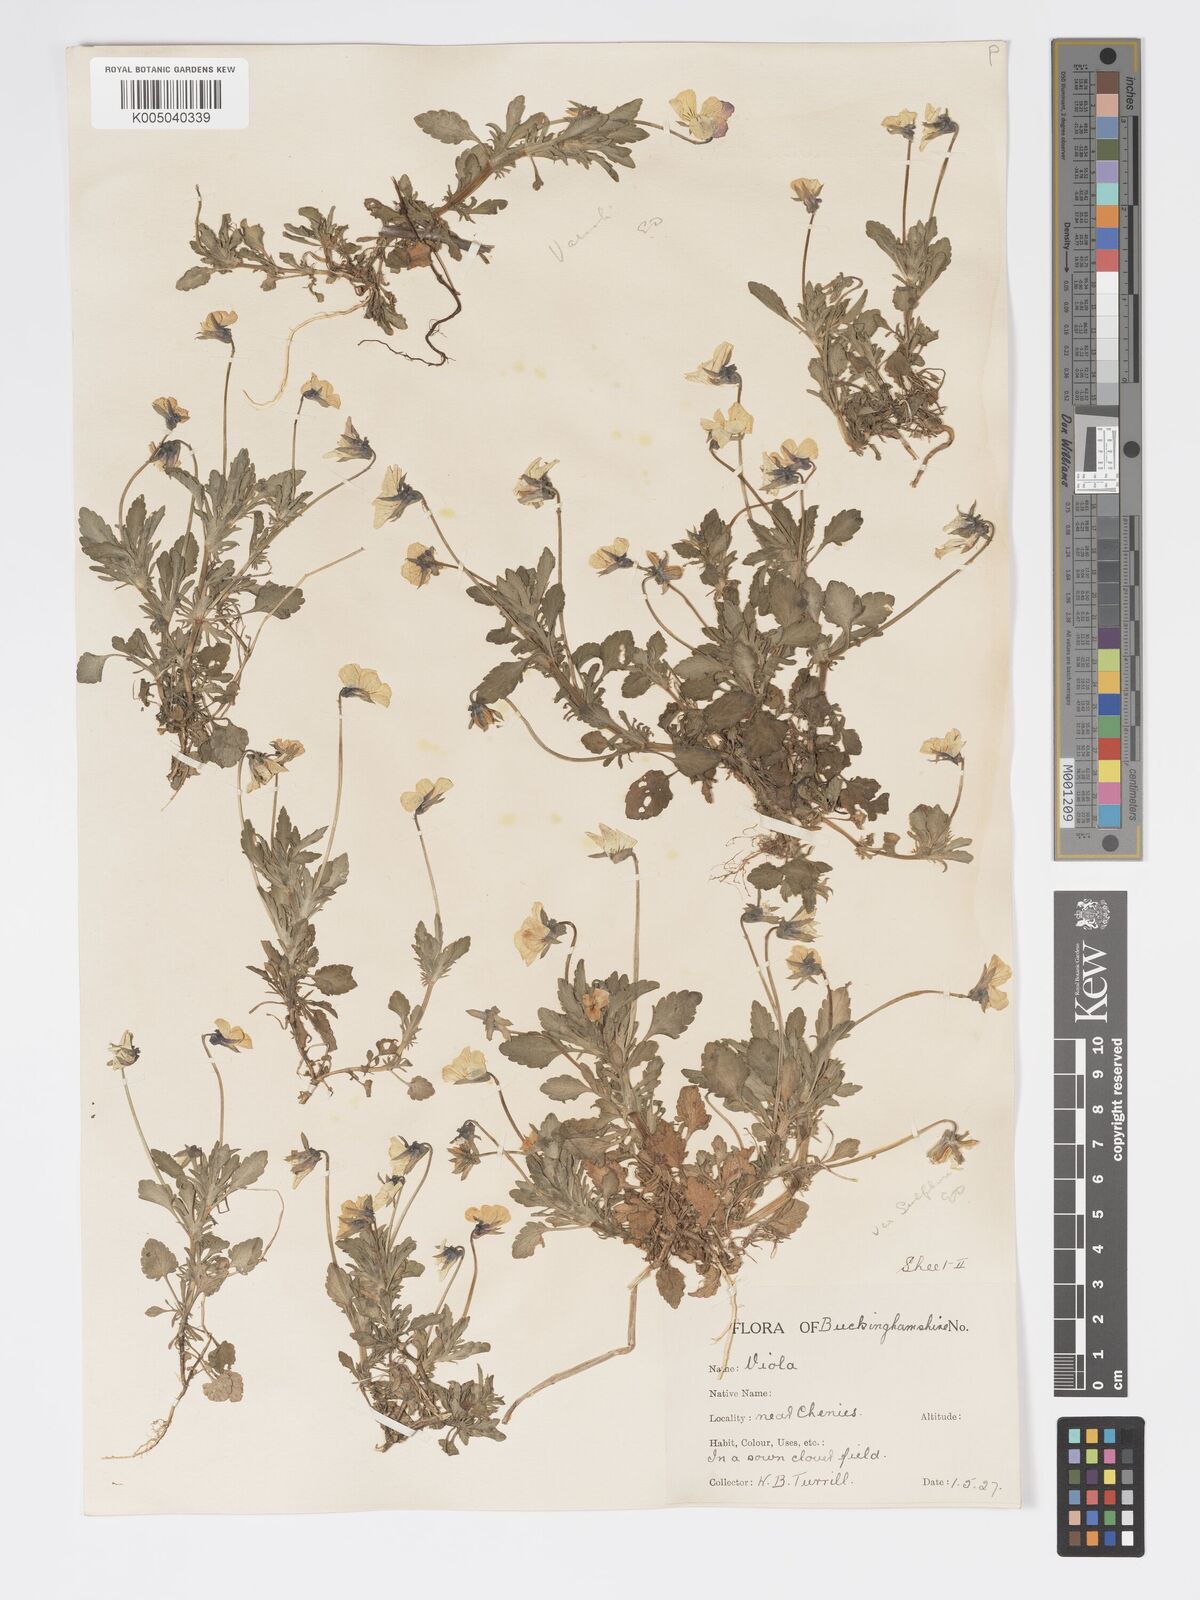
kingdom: Plantae
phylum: Tracheophyta
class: Magnoliopsida
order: Malpighiales
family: Violaceae
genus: Viola
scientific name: Viola arvensis
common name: Field pansy
